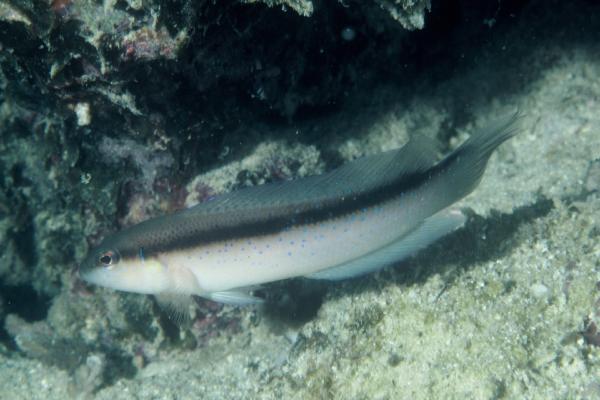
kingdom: Animalia
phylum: Chordata
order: Perciformes
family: Pseudochromidae
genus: Pseudochromis
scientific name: Pseudochromis persicus
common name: Bluespotted dottyback
